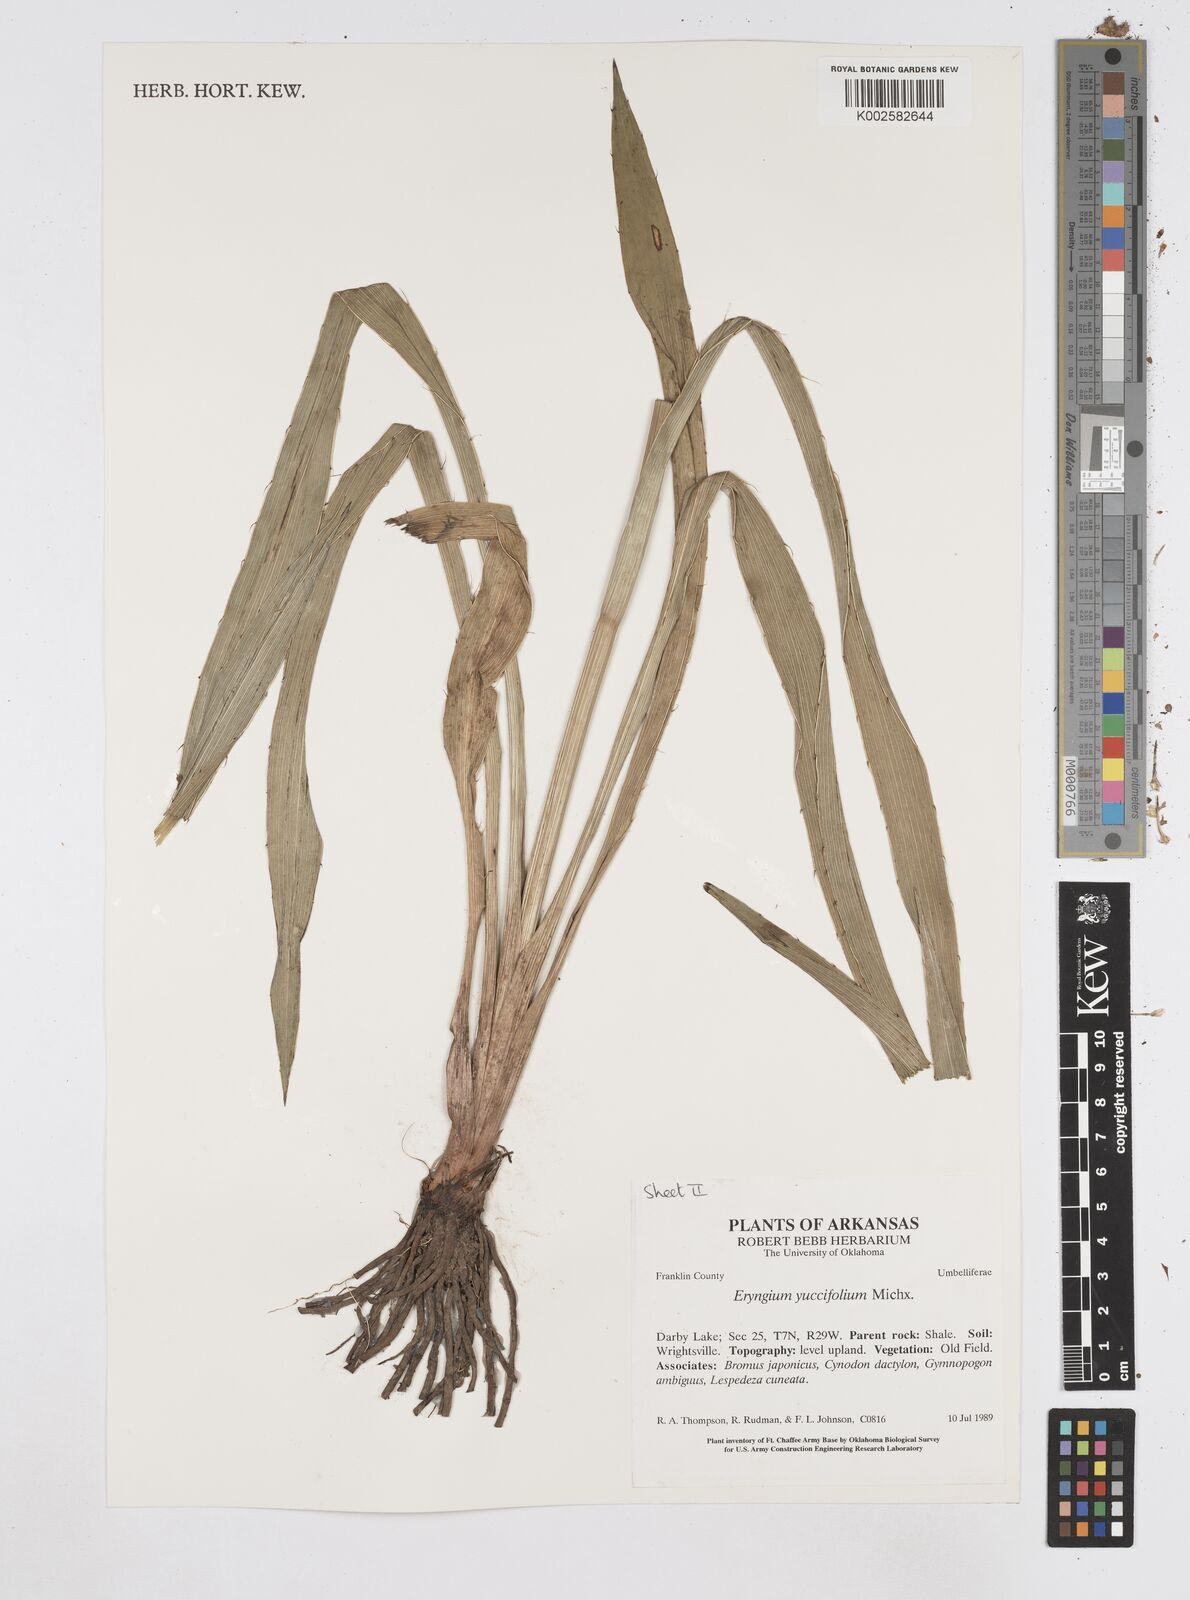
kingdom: Plantae
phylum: Tracheophyta
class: Magnoliopsida
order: Apiales
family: Apiaceae
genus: Eryngium
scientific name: Eryngium yuccifolium
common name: Button eryngo
